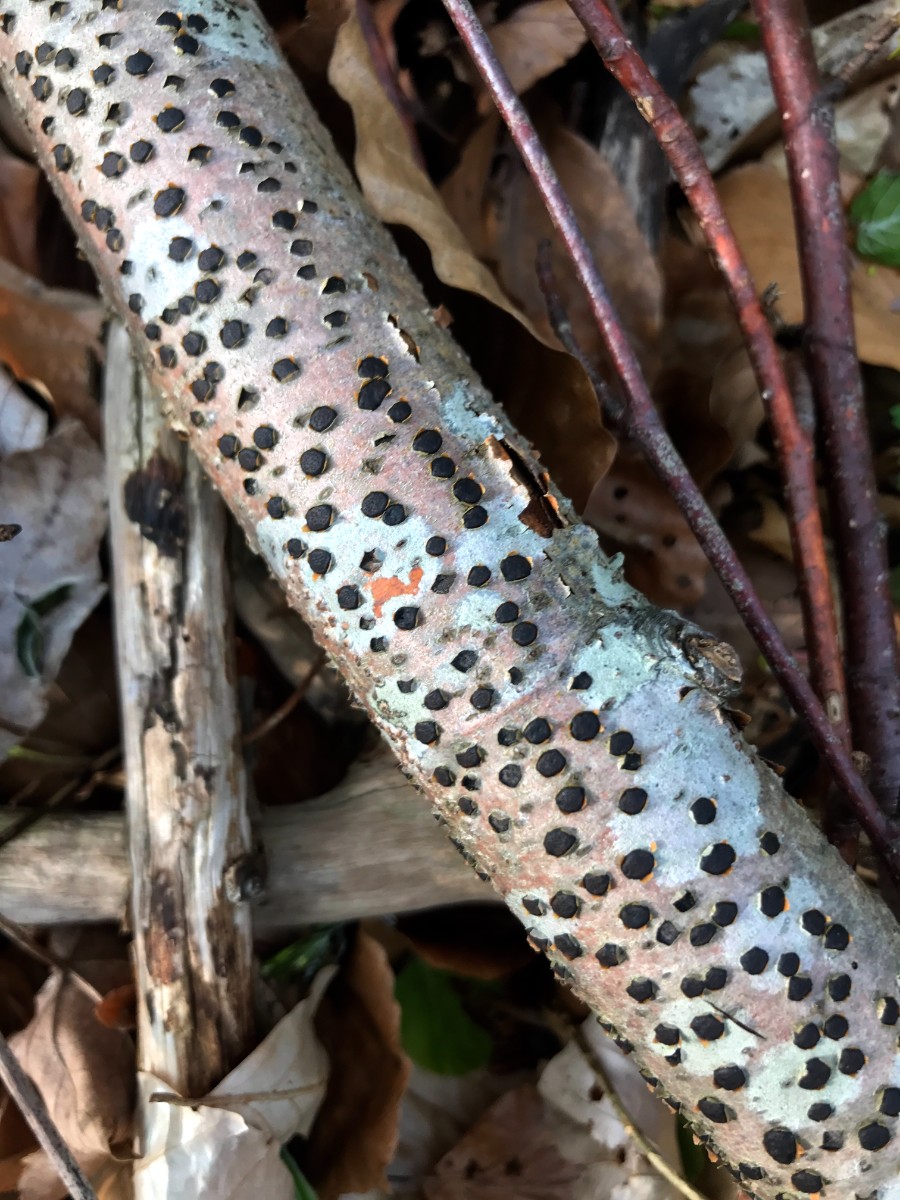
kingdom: Fungi
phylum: Ascomycota
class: Sordariomycetes
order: Xylariales
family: Diatrypaceae
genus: Diatrype
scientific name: Diatrype disciformis
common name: kant-kulskorpe
